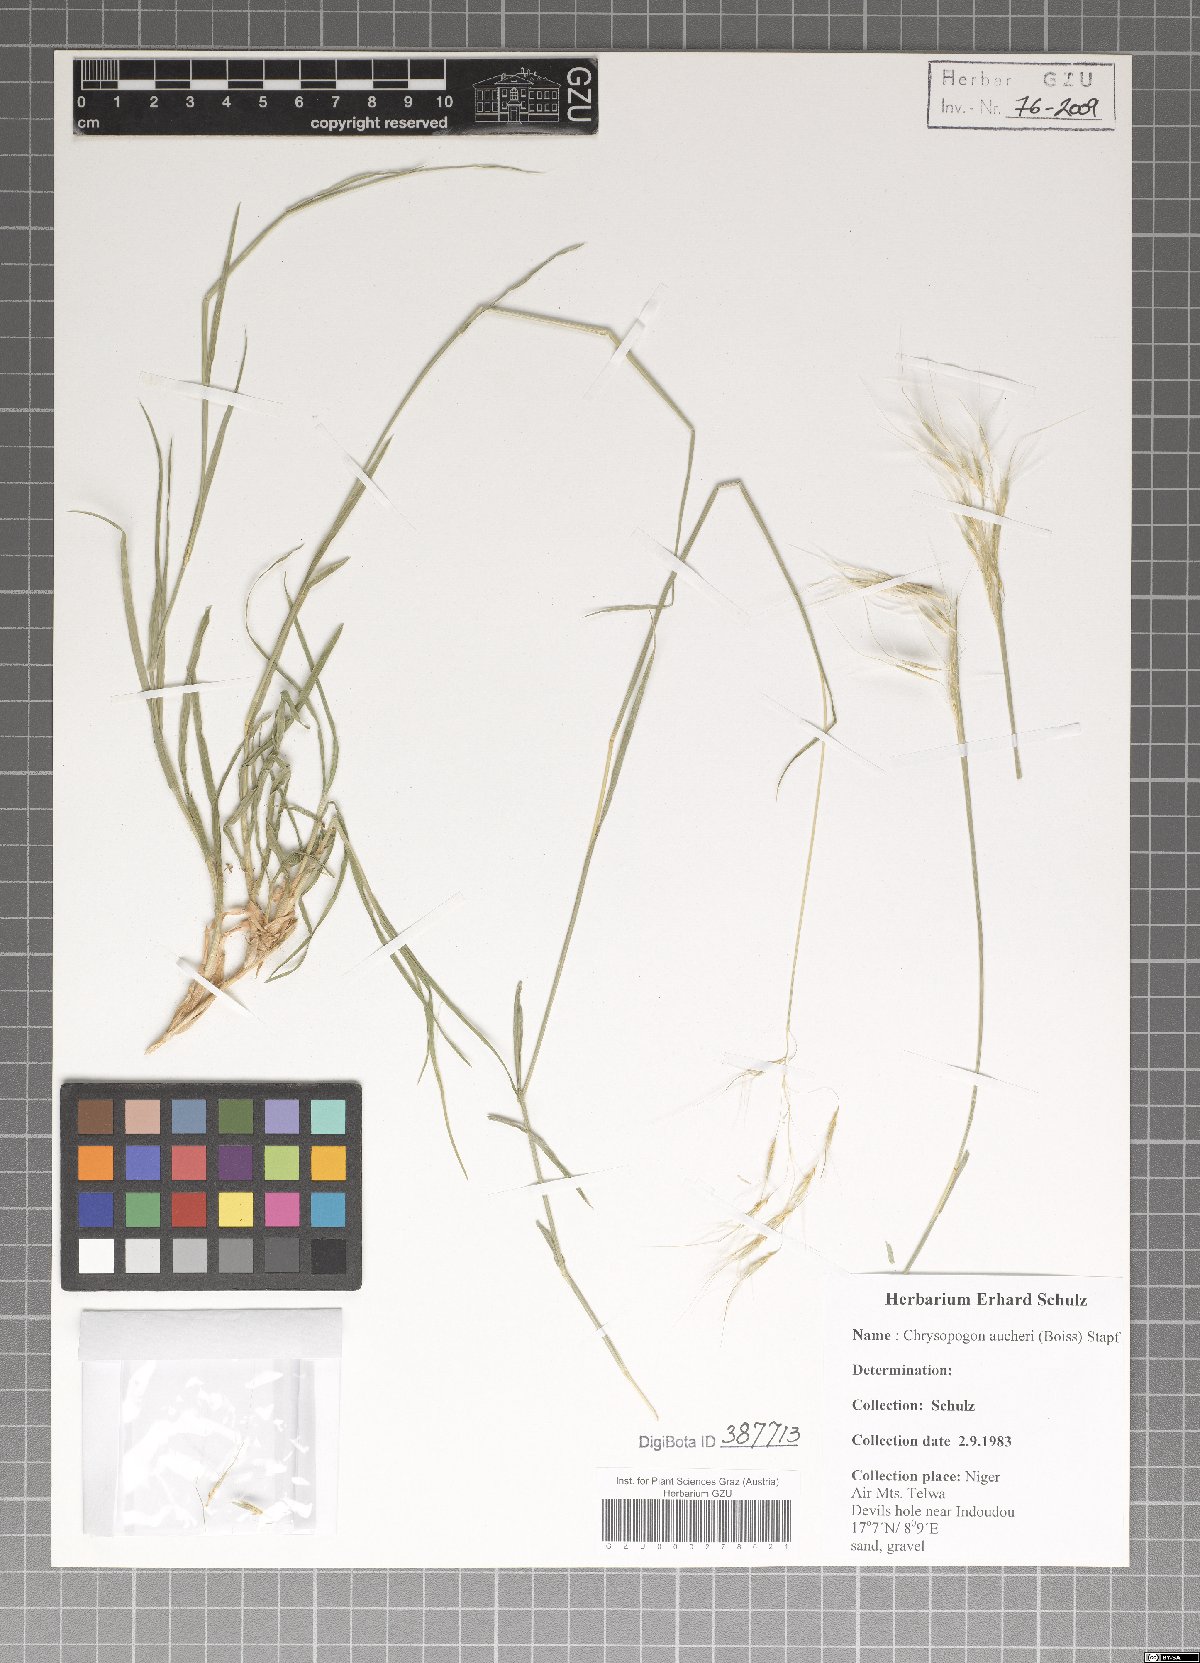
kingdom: Plantae
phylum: Tracheophyta
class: Liliopsida
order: Poales
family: Poaceae
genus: Chrysopogon
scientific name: Chrysopogon aucheri
